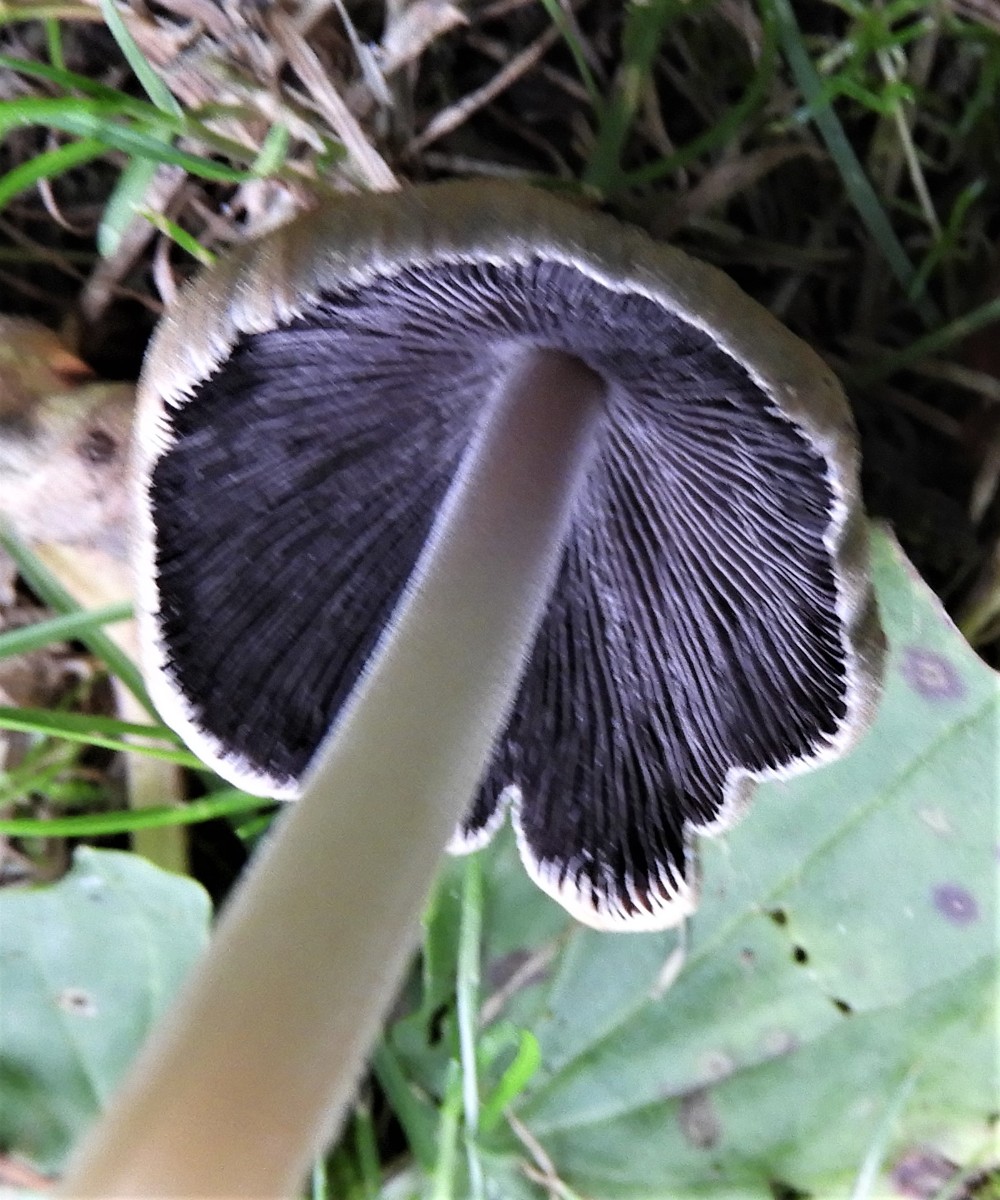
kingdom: Fungi
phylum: Basidiomycota
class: Agaricomycetes
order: Agaricales
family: Psathyrellaceae
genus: Coprinellus
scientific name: Coprinellus micaceus
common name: glimmer-blækhat
